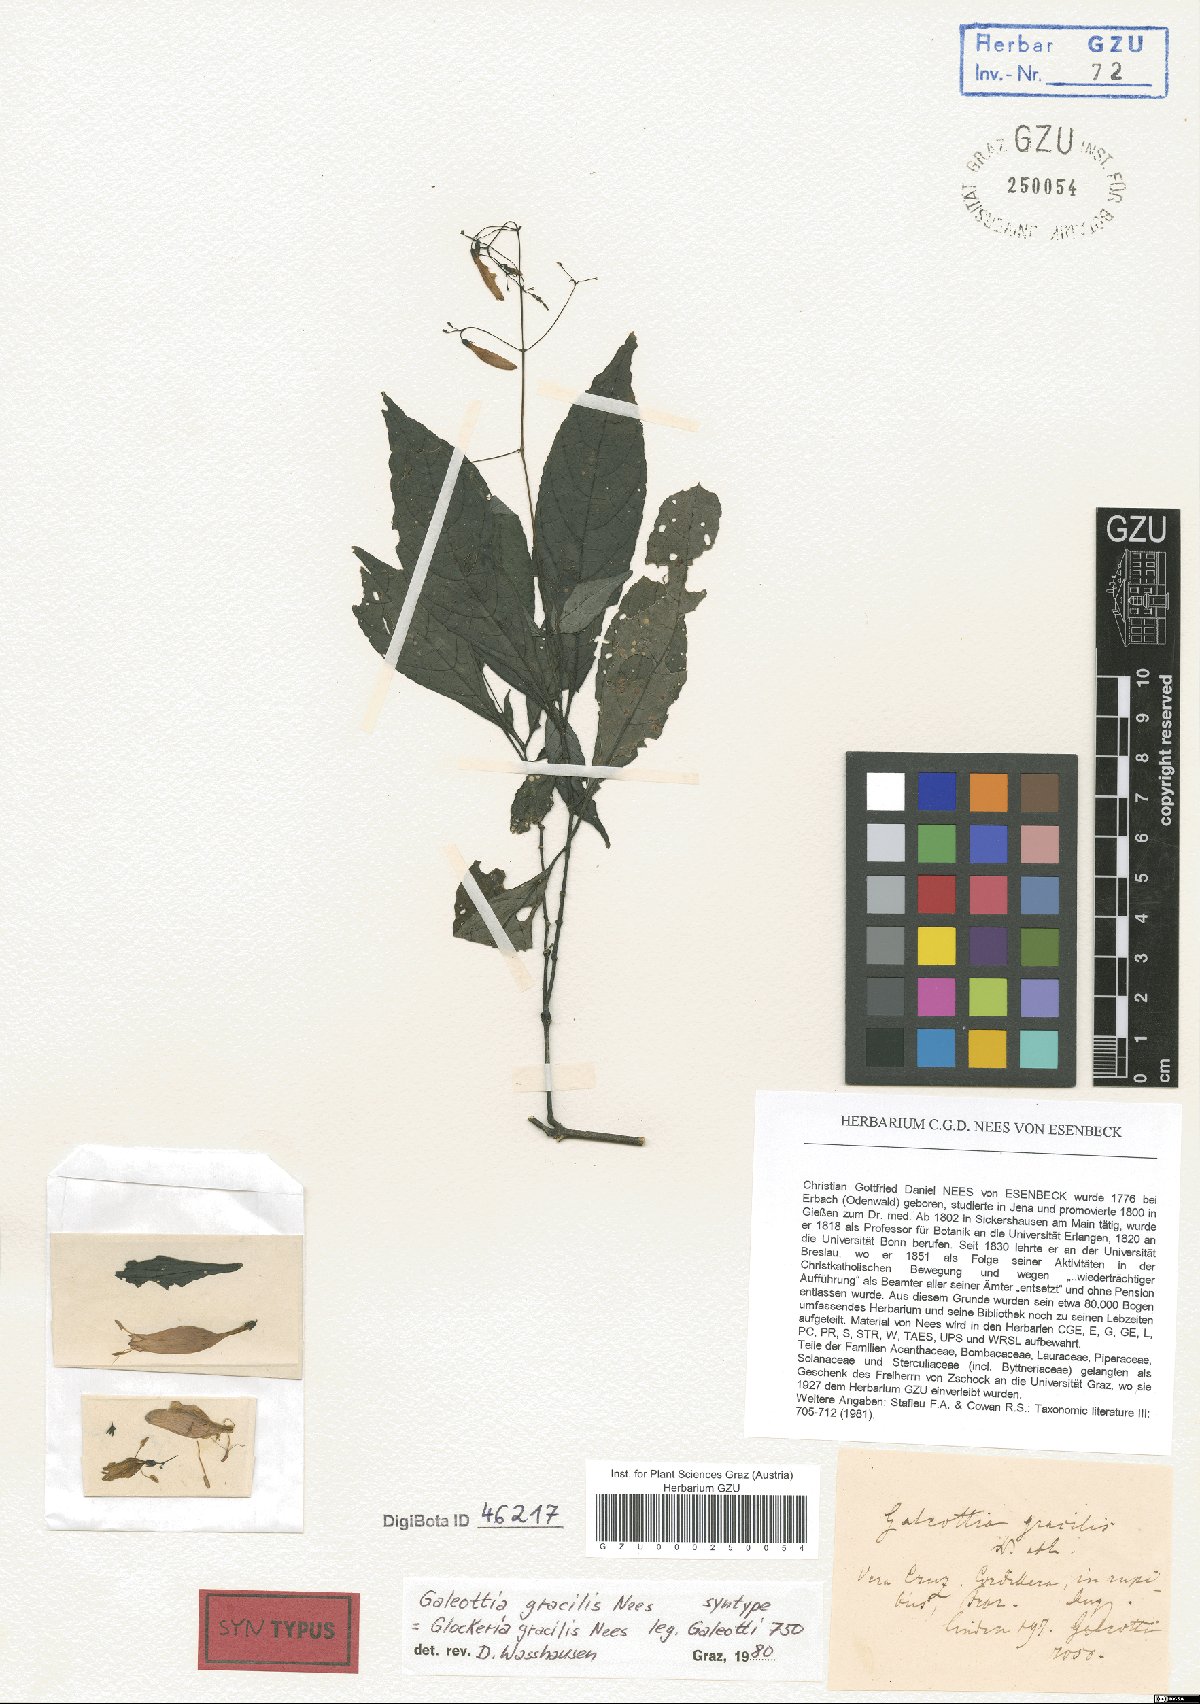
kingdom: Plantae
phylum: Tracheophyta
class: Magnoliopsida
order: Lamiales
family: Acanthaceae
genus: Stenostephanus
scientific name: Stenostephanus gracilis
